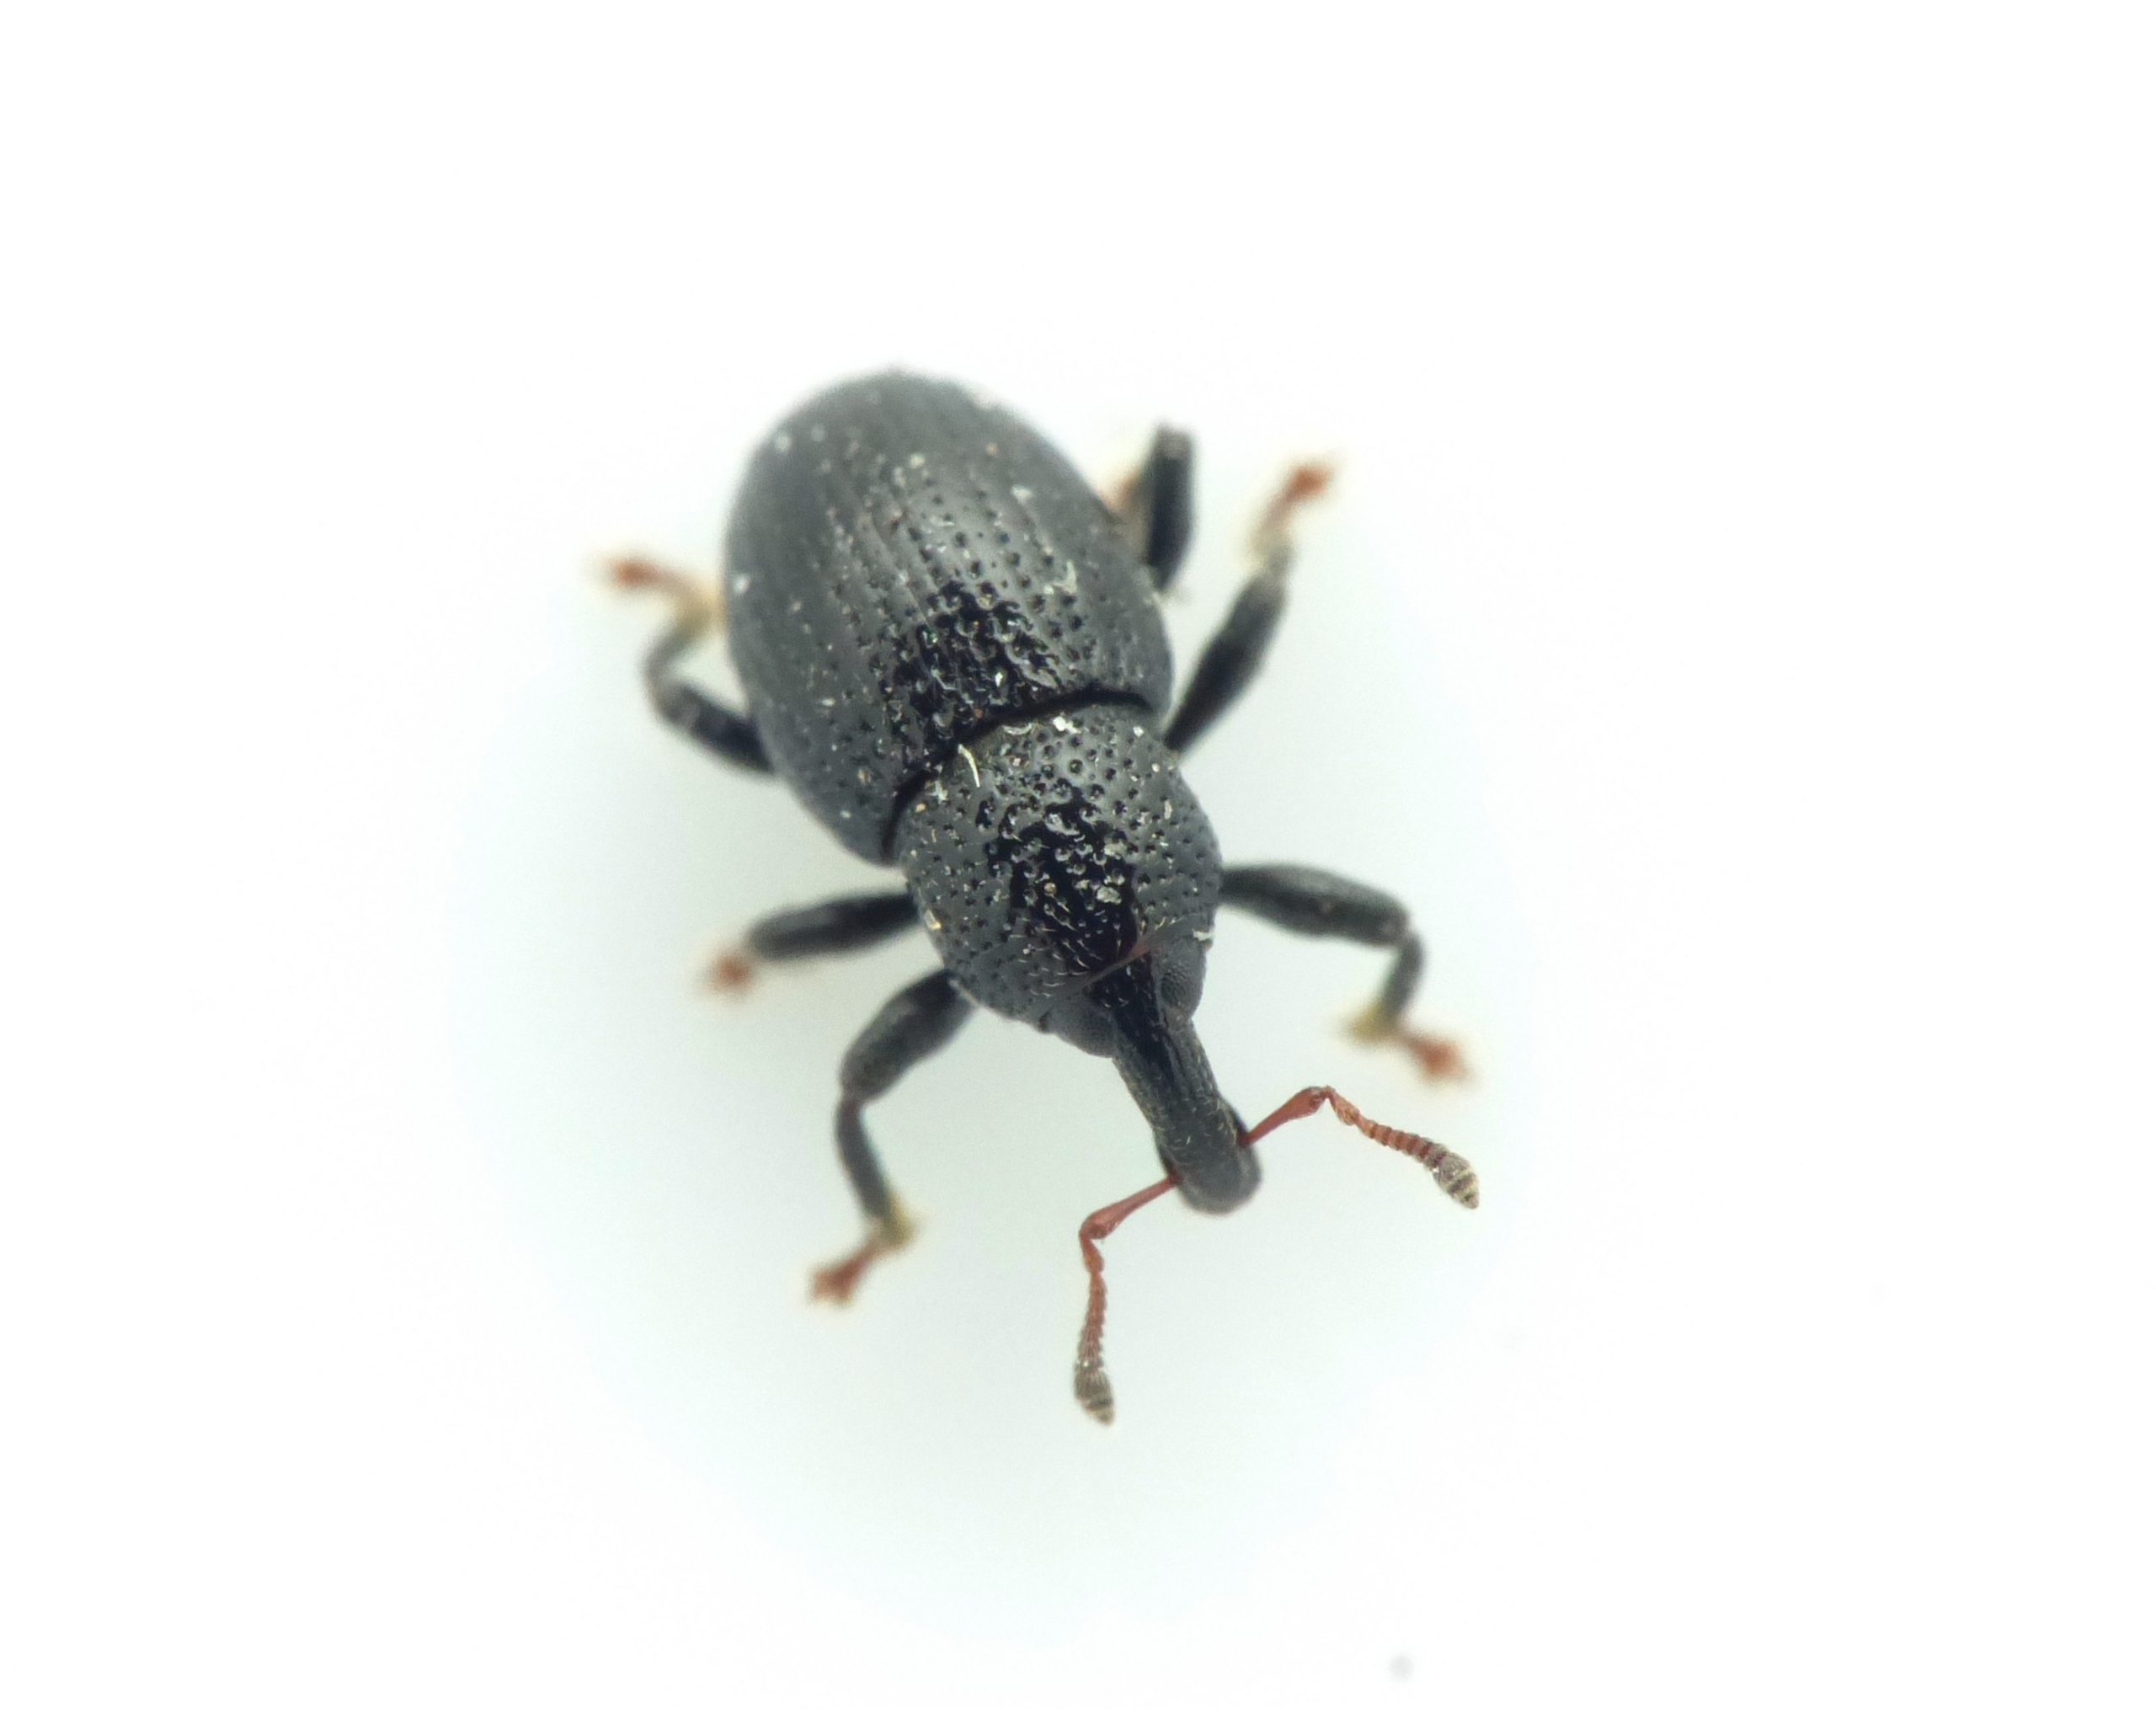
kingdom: Animalia
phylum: Arthropoda
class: Insecta
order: Coleoptera
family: Curculionidae
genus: Leiosoma
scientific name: Leiosoma deflexum
